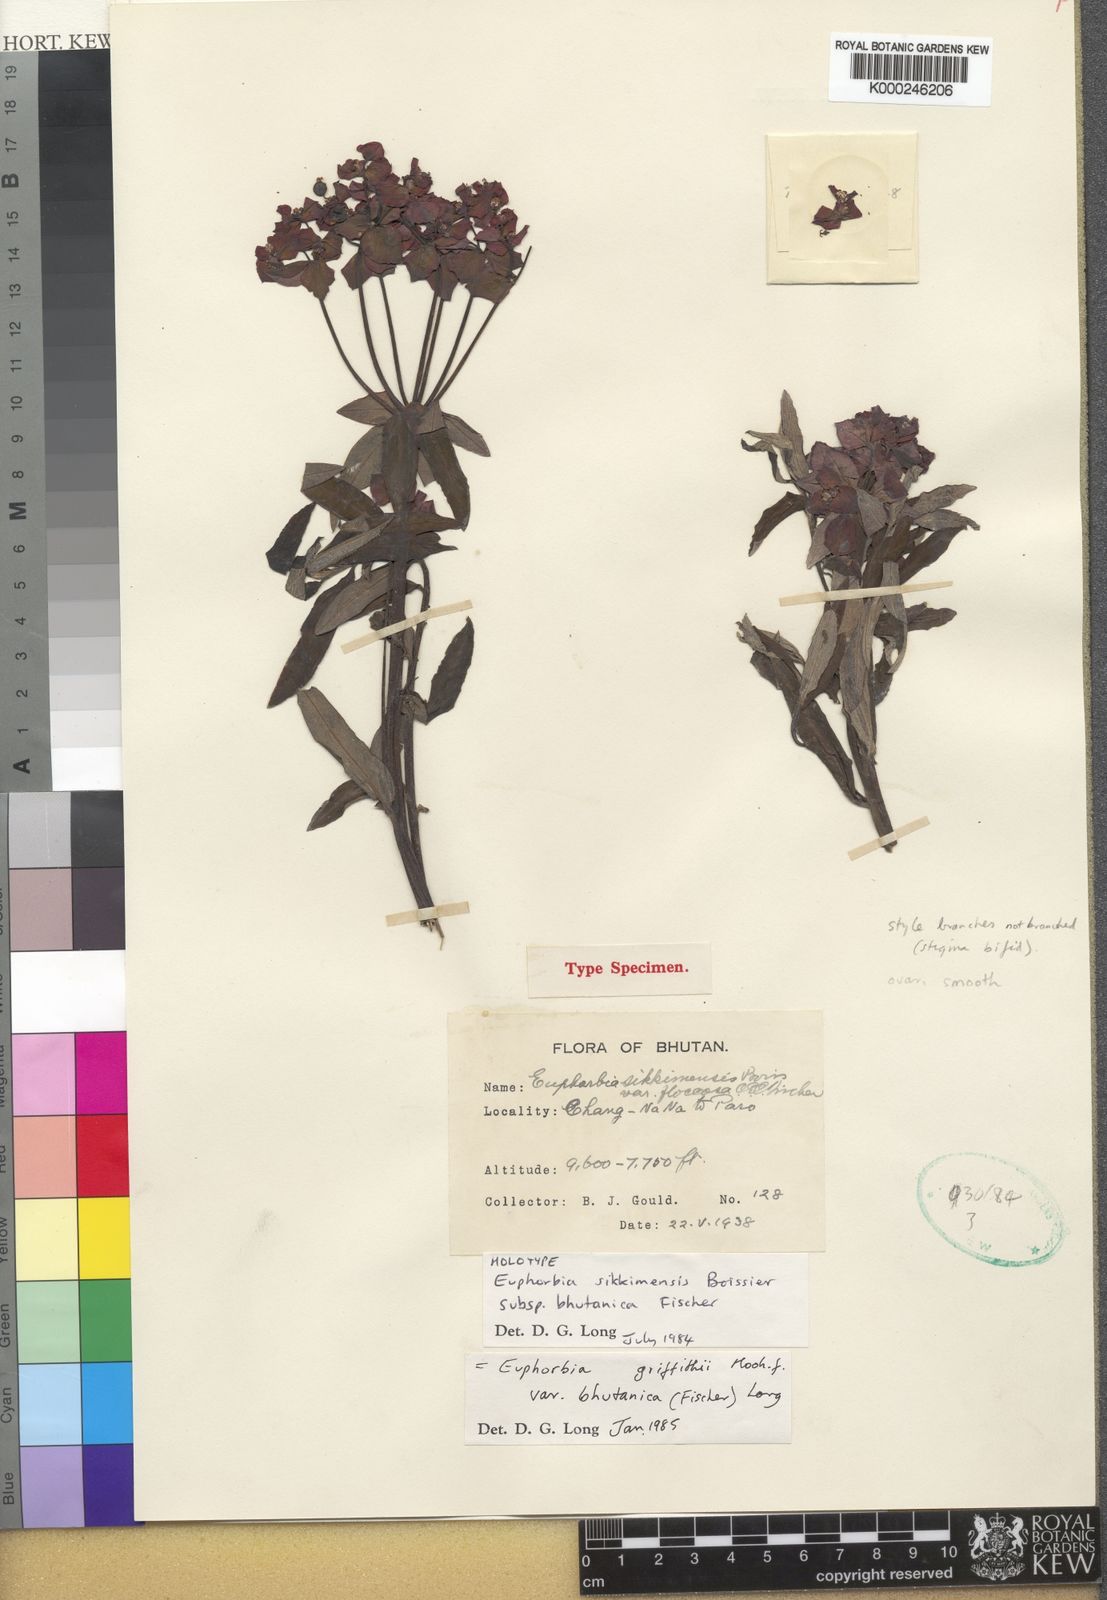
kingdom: Plantae
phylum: Tracheophyta
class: Magnoliopsida
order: Malpighiales
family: Euphorbiaceae
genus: Euphorbia
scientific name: Euphorbia griffithii
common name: Griffith's spurge
